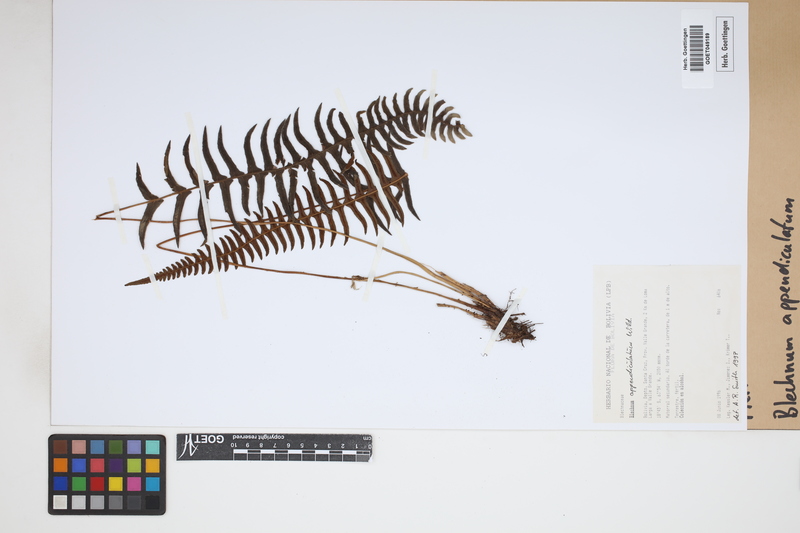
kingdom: Plantae
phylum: Tracheophyta
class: Polypodiopsida
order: Polypodiales
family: Blechnaceae
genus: Blechnum
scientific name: Blechnum appendiculatum
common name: Palm fern
